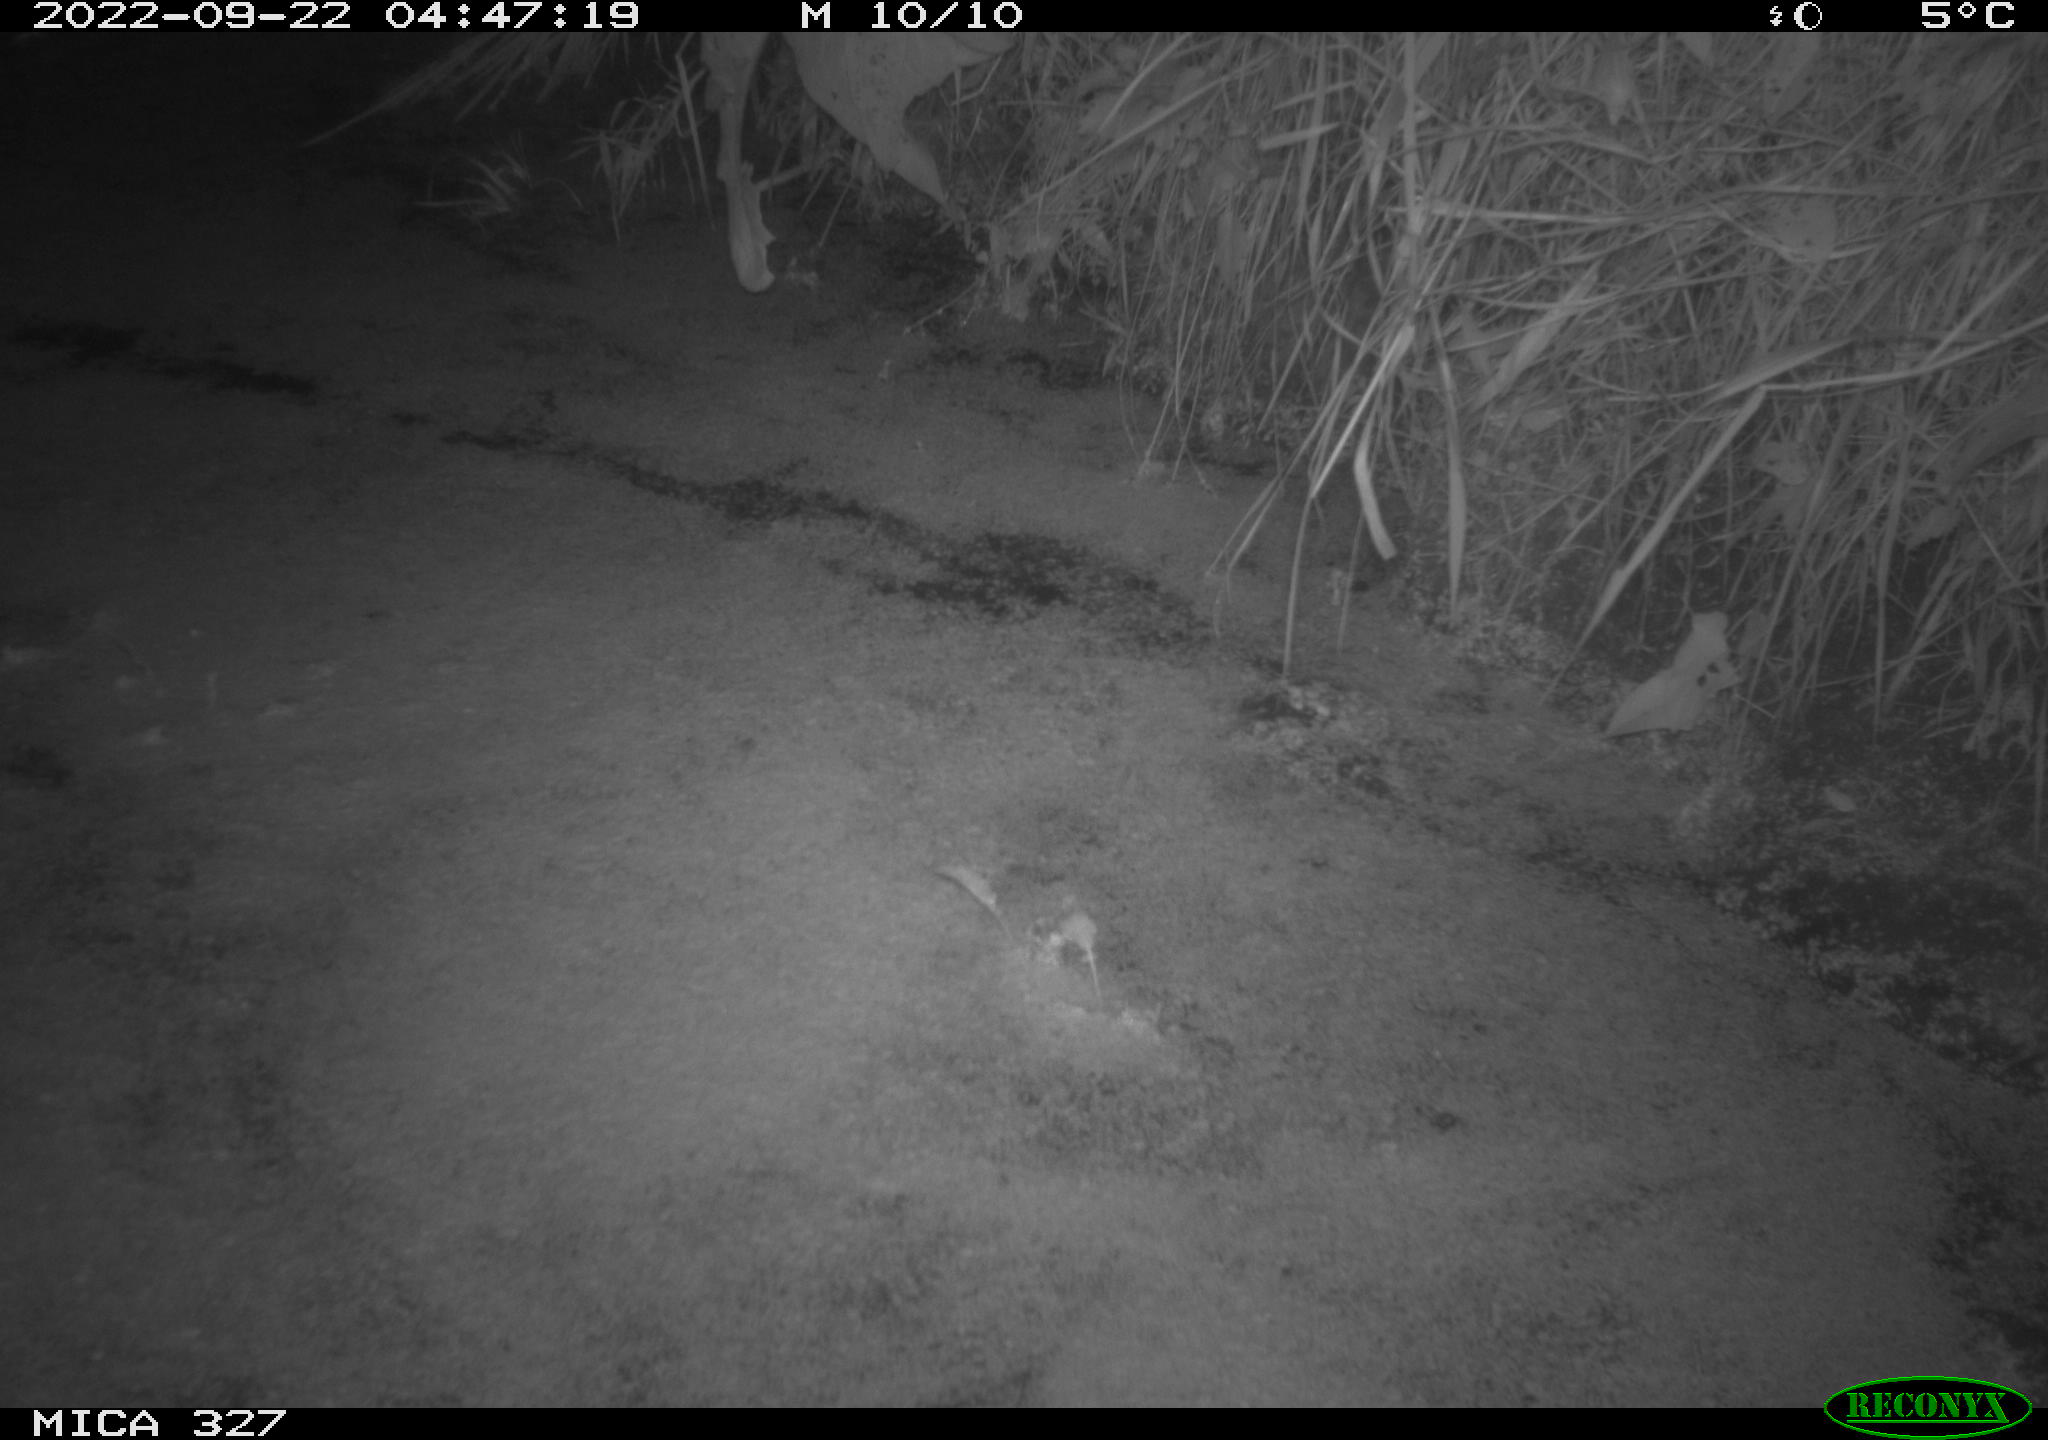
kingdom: Animalia
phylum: Chordata
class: Mammalia
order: Rodentia
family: Cricetidae
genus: Ondatra
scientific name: Ondatra zibethicus
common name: Muskrat
